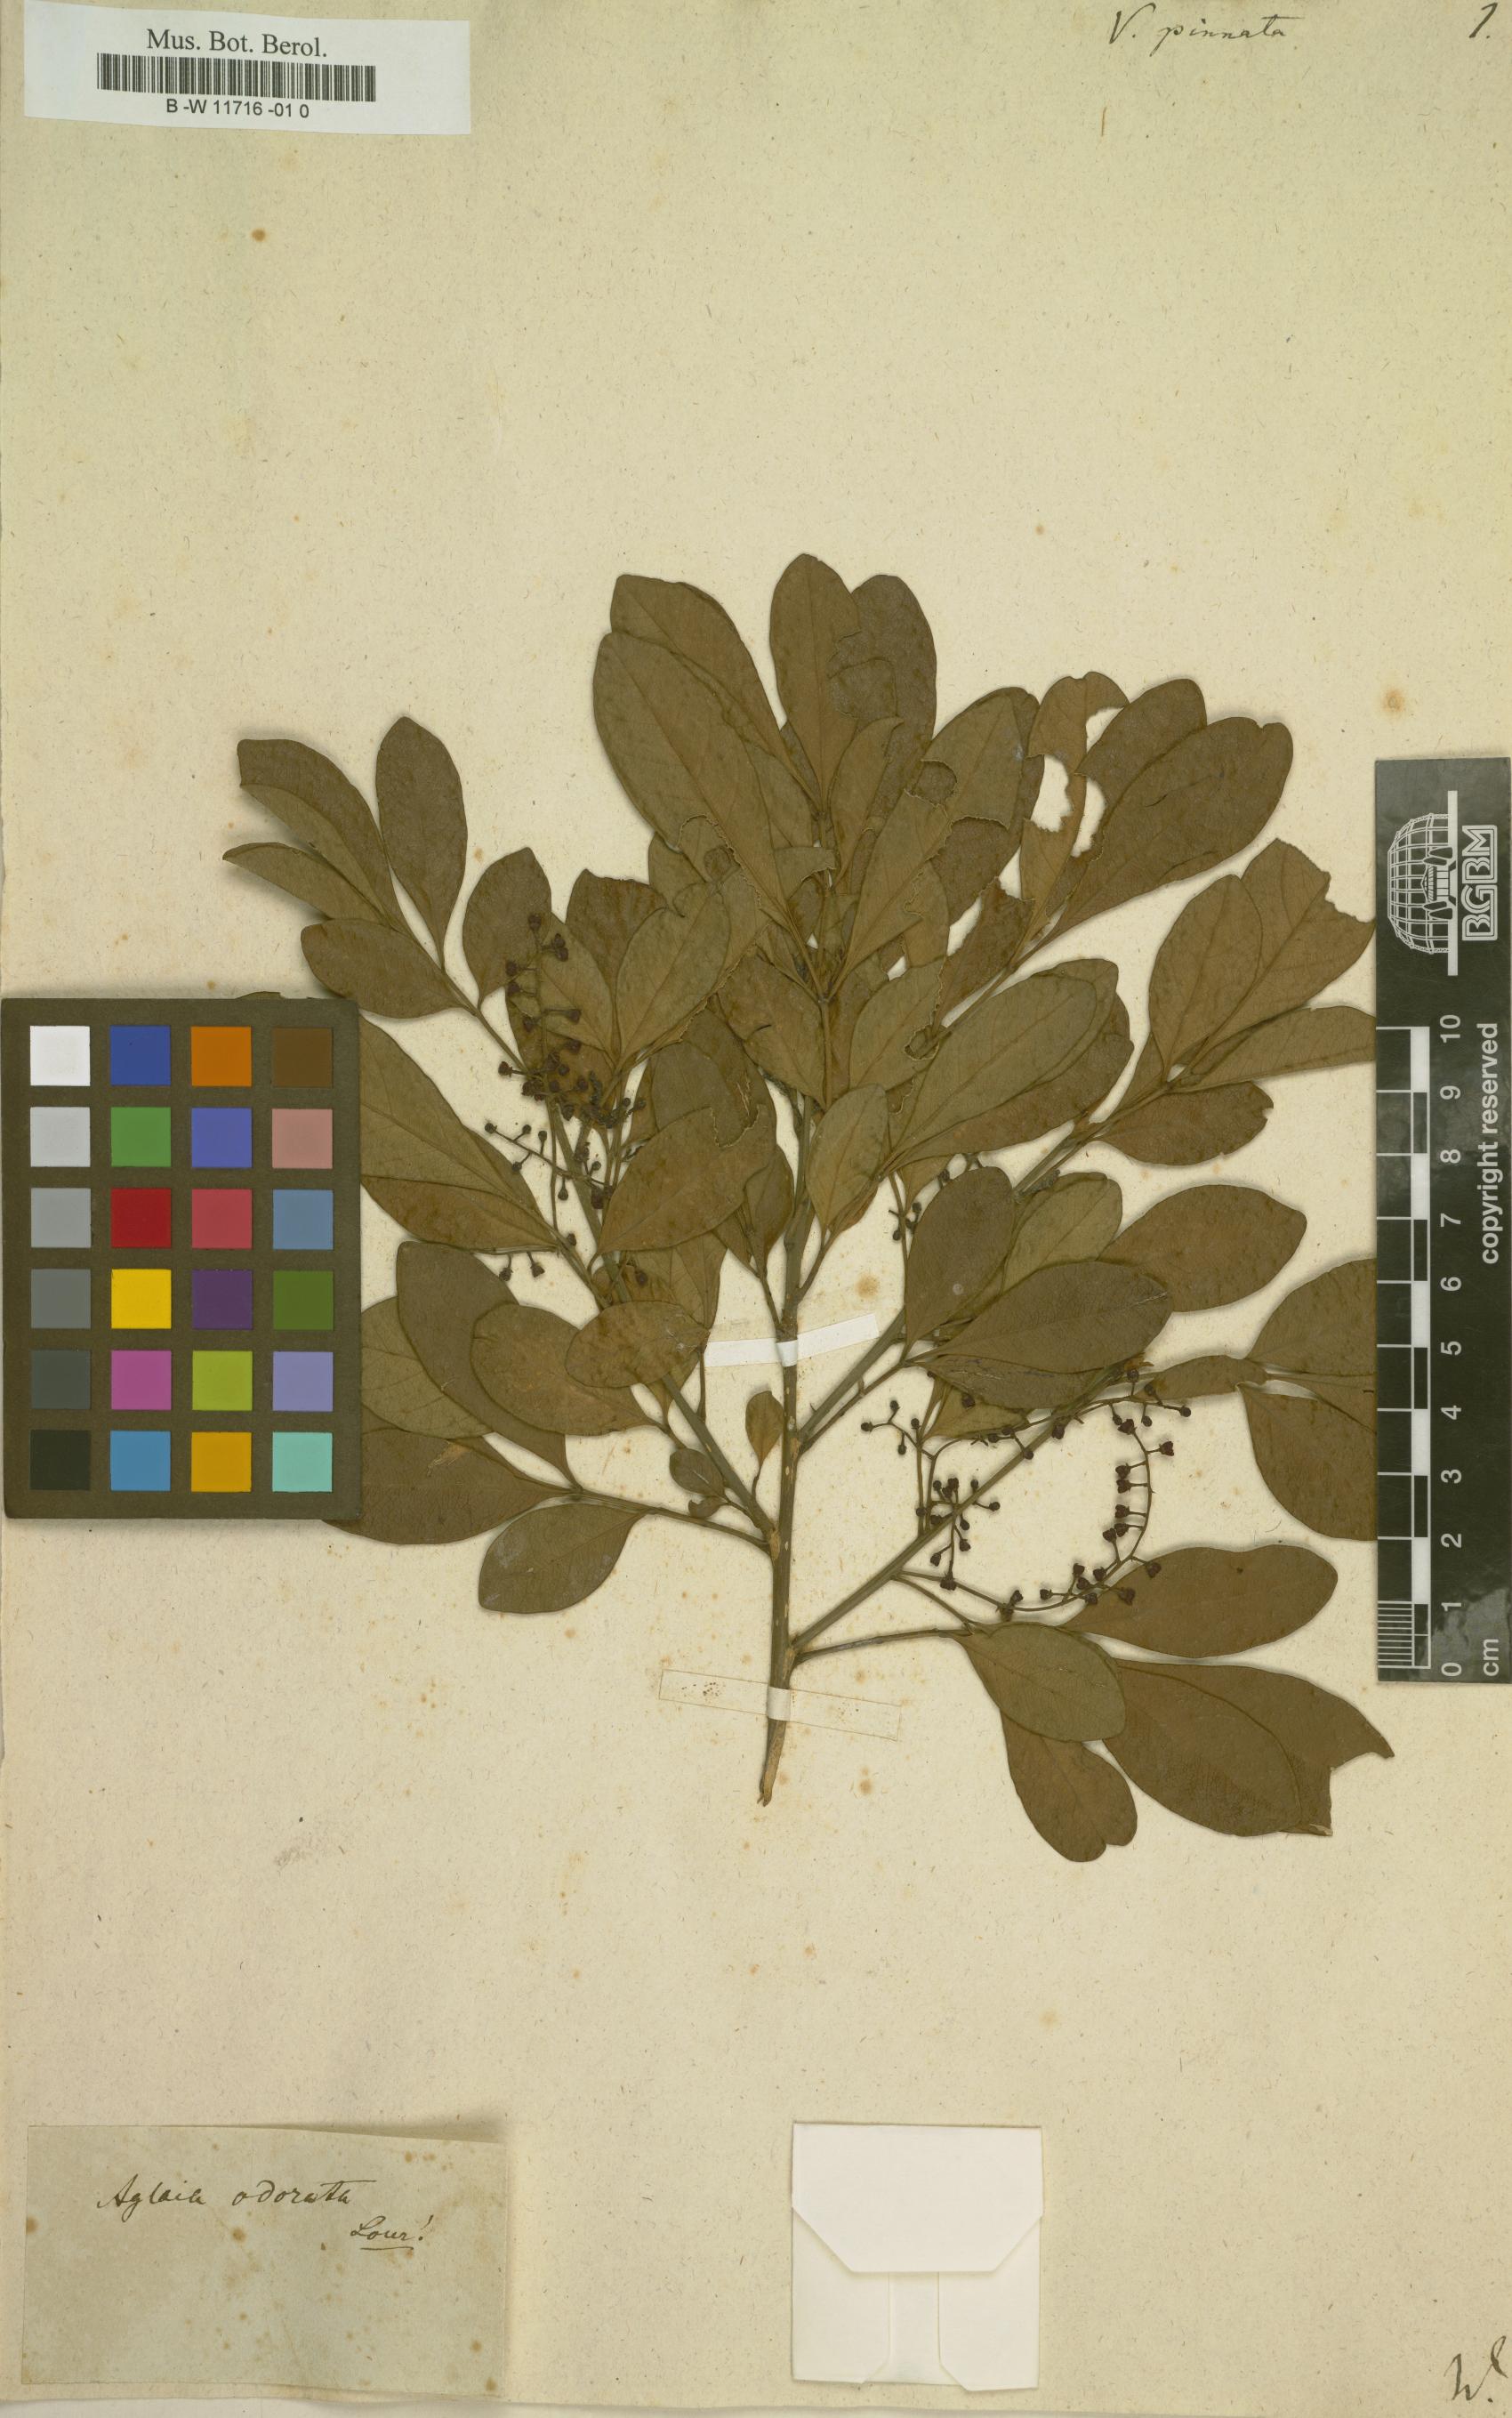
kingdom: Plantae
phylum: Tracheophyta
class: Magnoliopsida
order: Lamiales
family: Lamiaceae
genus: Vitex
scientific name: Vitex pinnata
